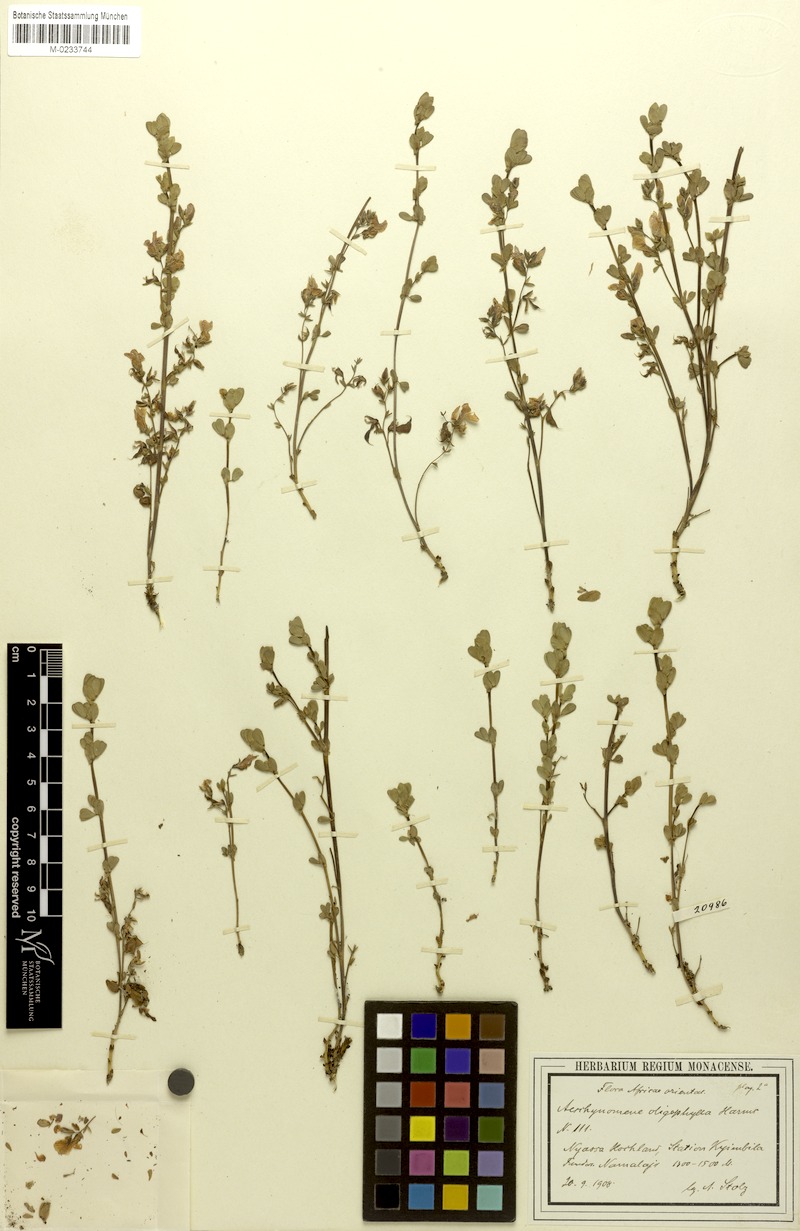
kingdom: Plantae
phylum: Tracheophyta
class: Magnoliopsida
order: Fabales
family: Fabaceae
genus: Aeschynomene
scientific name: Aeschynomene oligophylla
